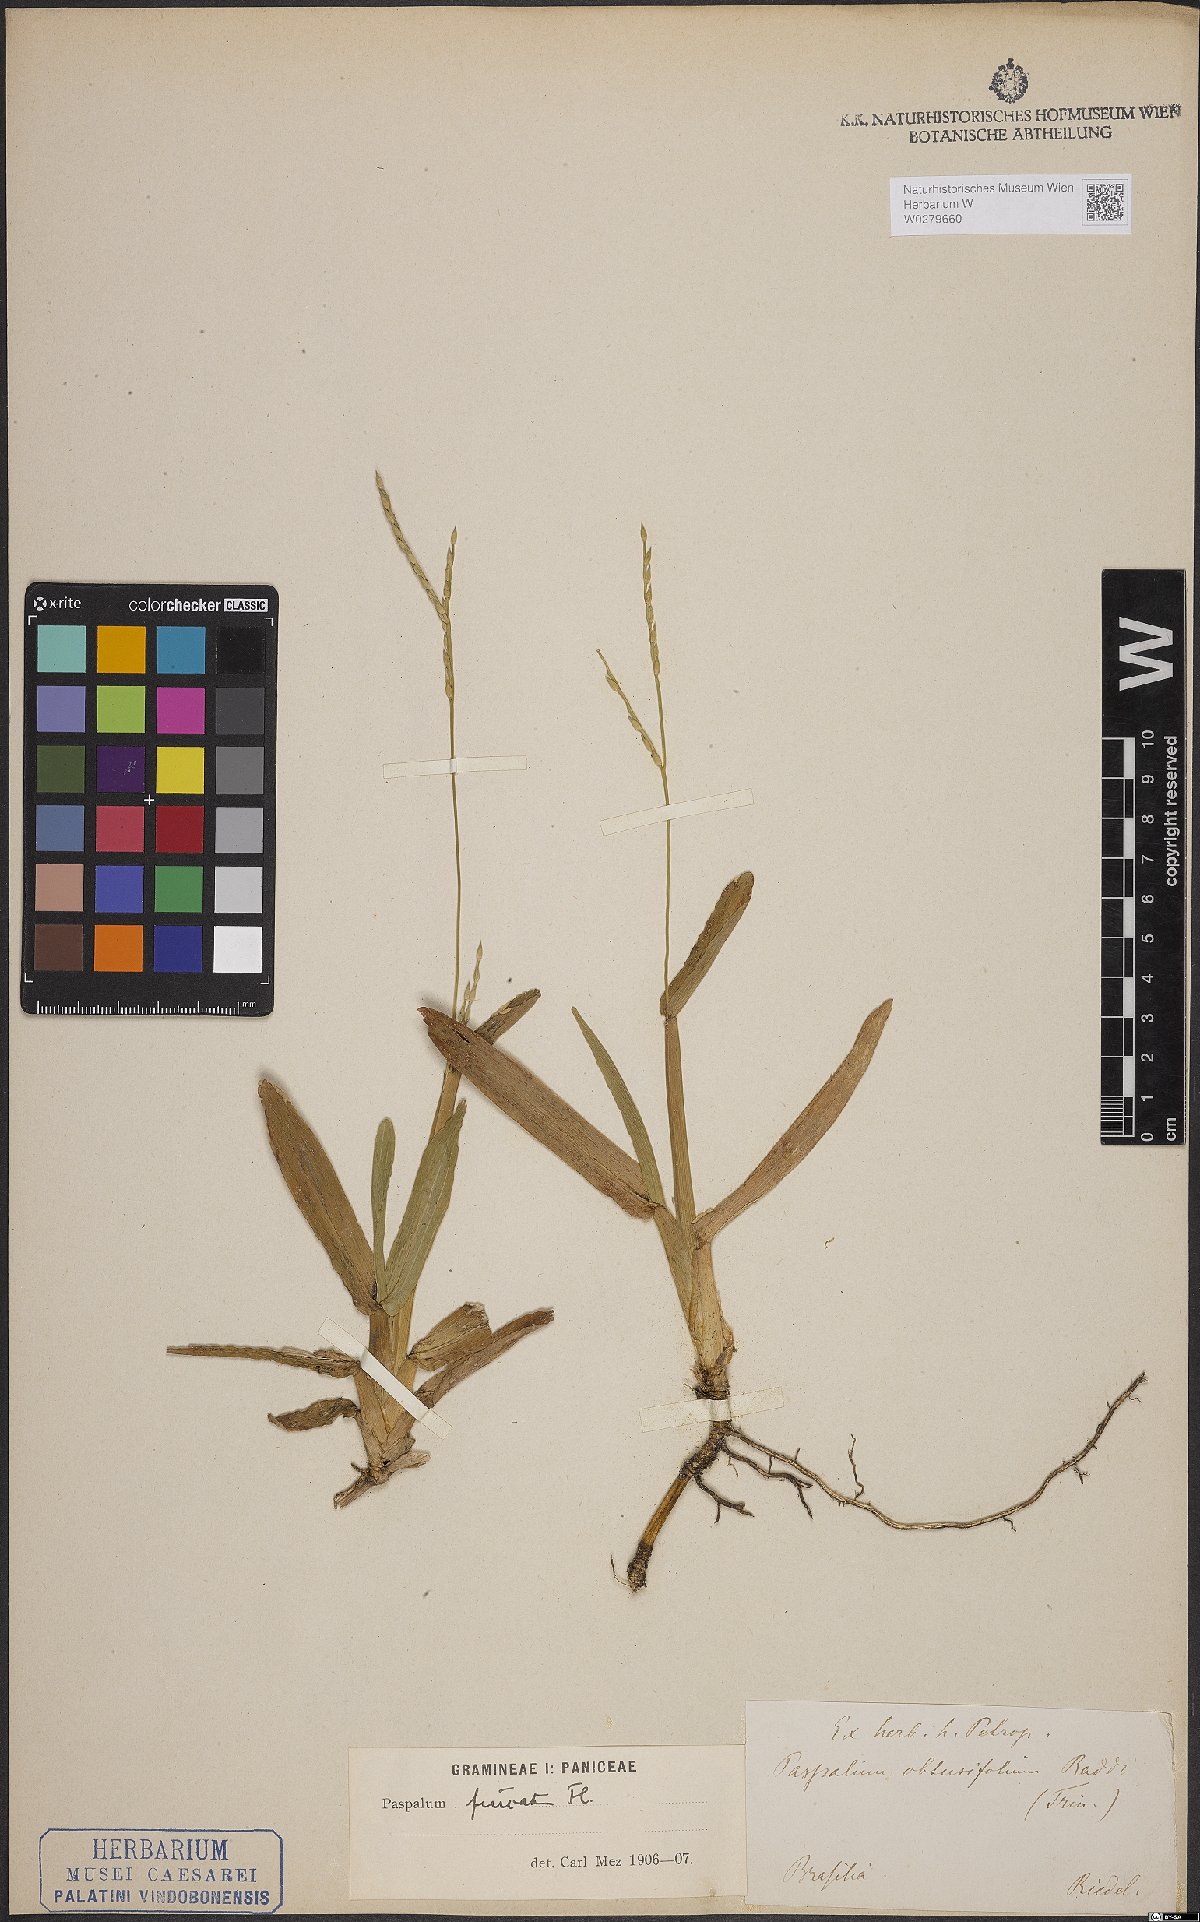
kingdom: Plantae
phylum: Tracheophyta
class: Liliopsida
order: Poales
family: Poaceae
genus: Axonopus
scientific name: Axonopus furcatus
